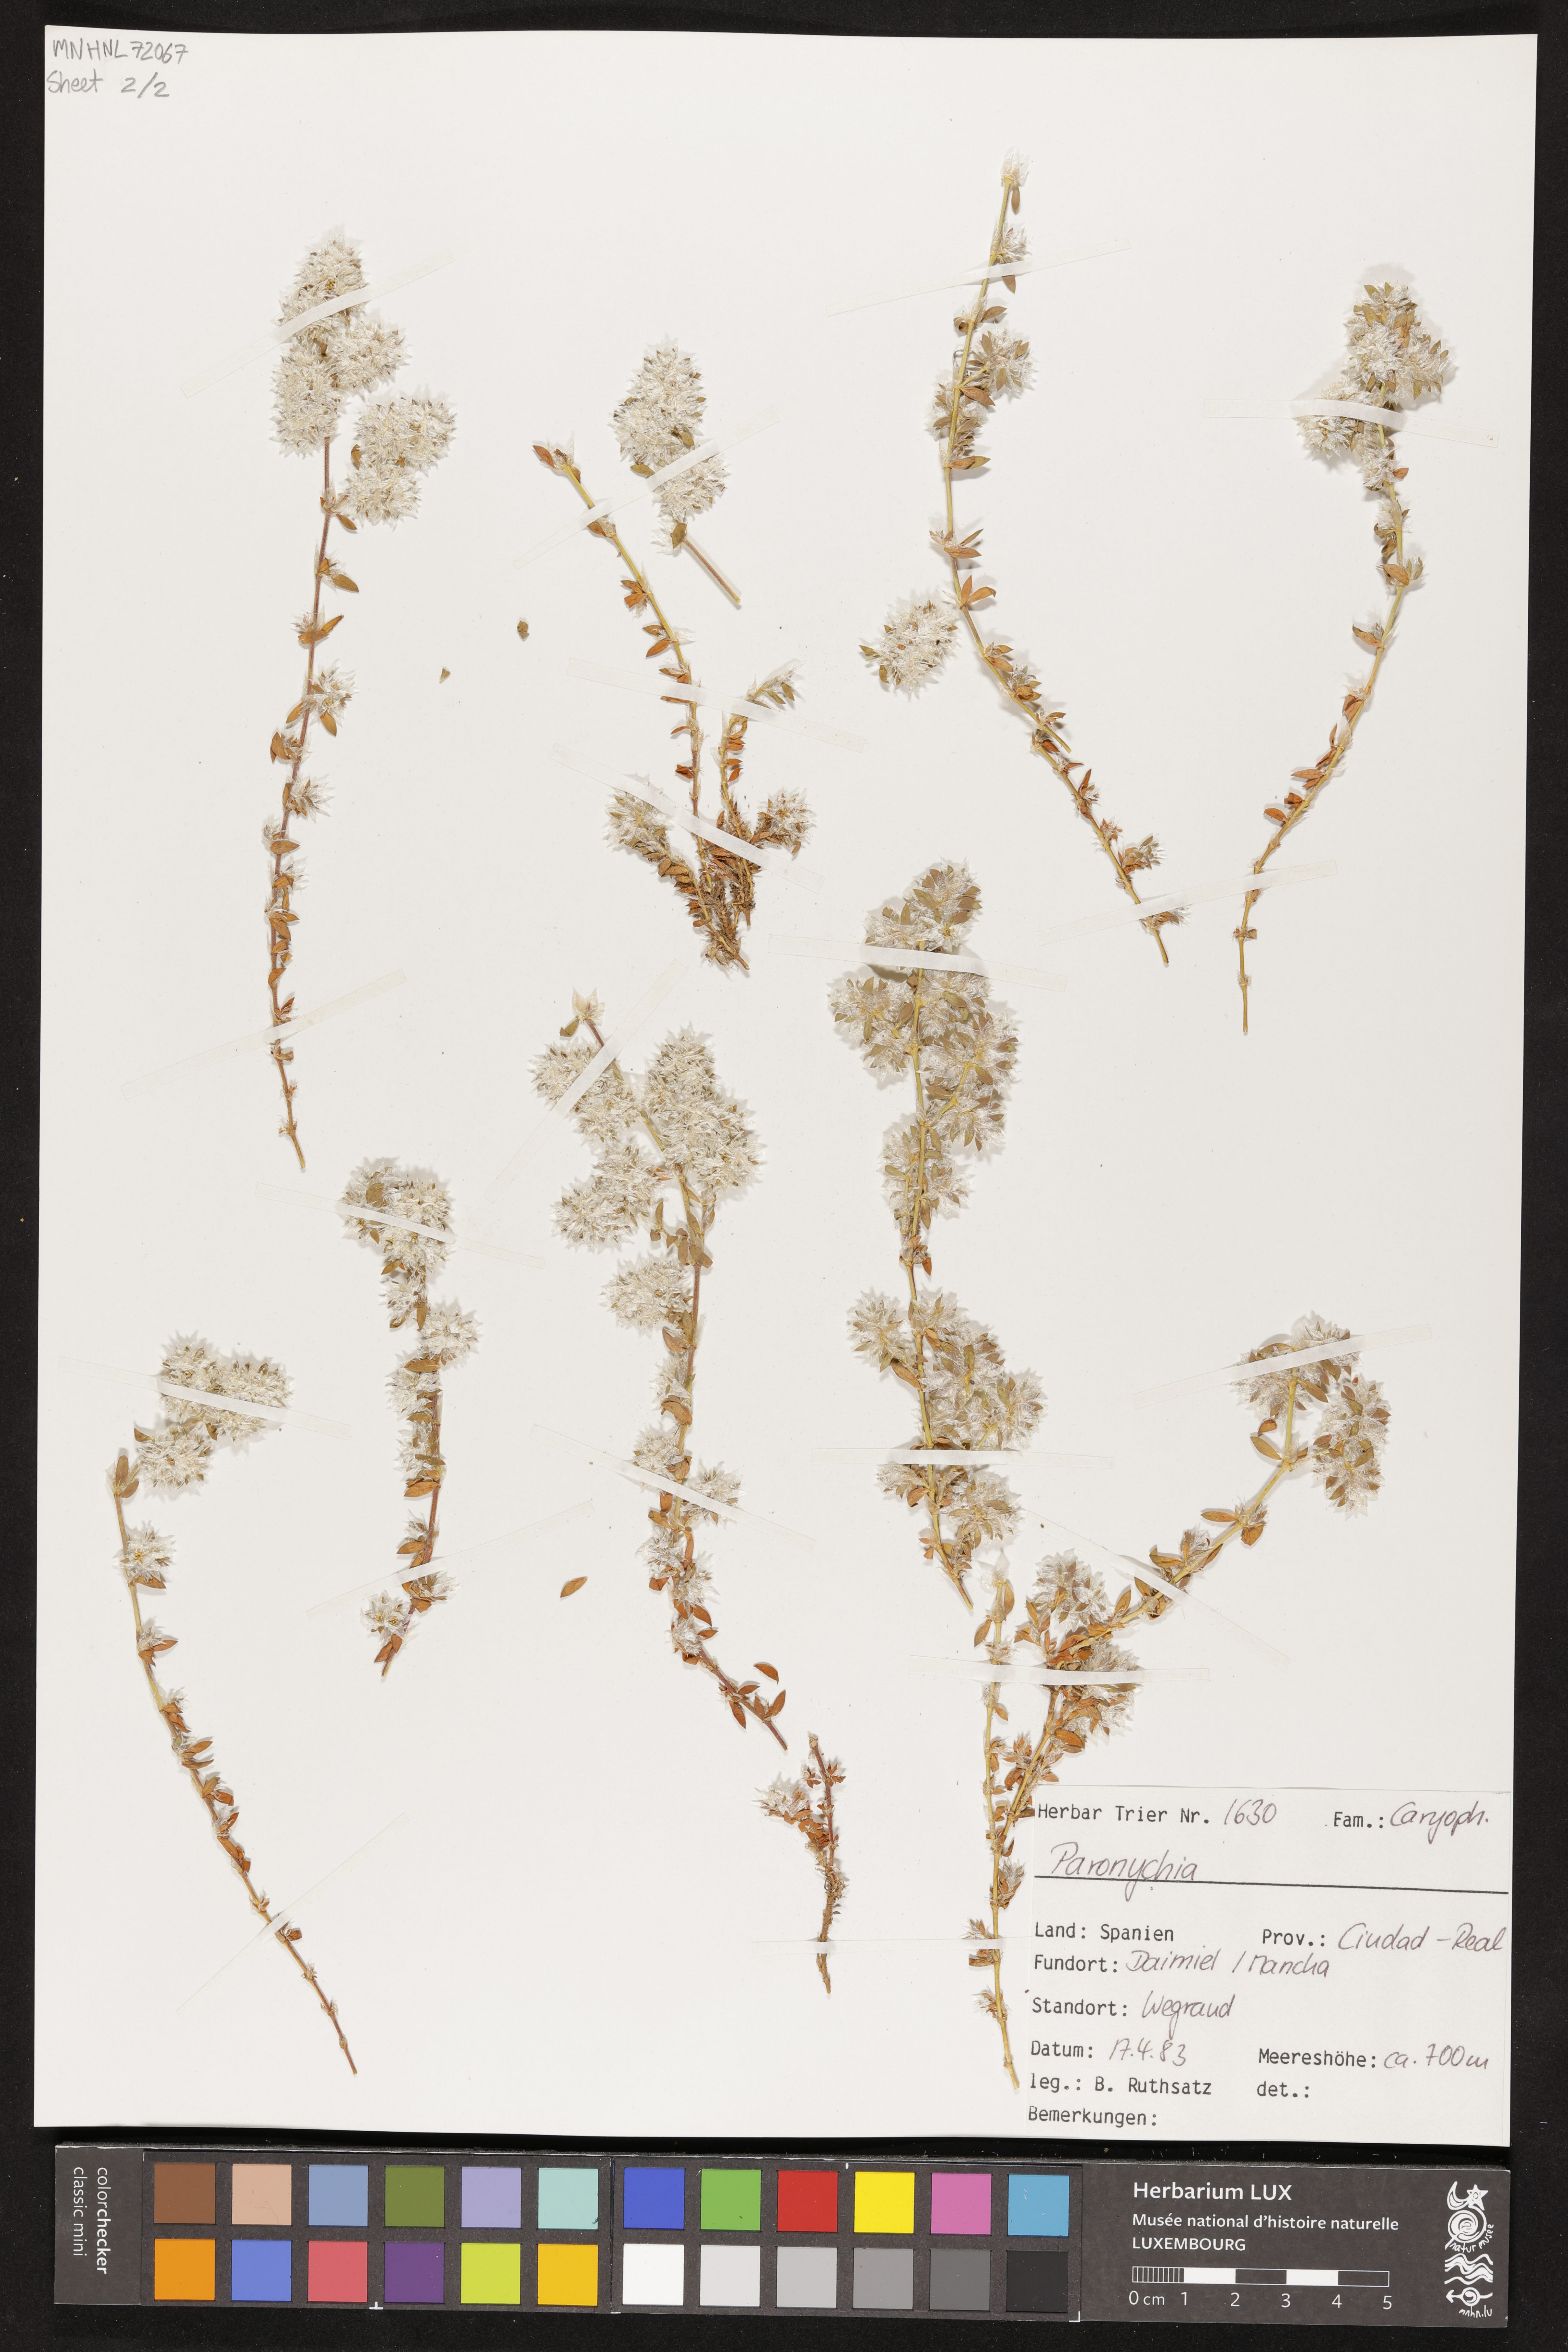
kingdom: Plantae
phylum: Tracheophyta
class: Magnoliopsida
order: Caryophyllales
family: Caryophyllaceae
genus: Paronychia
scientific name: Paronychia argentea
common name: Silver nailroot
